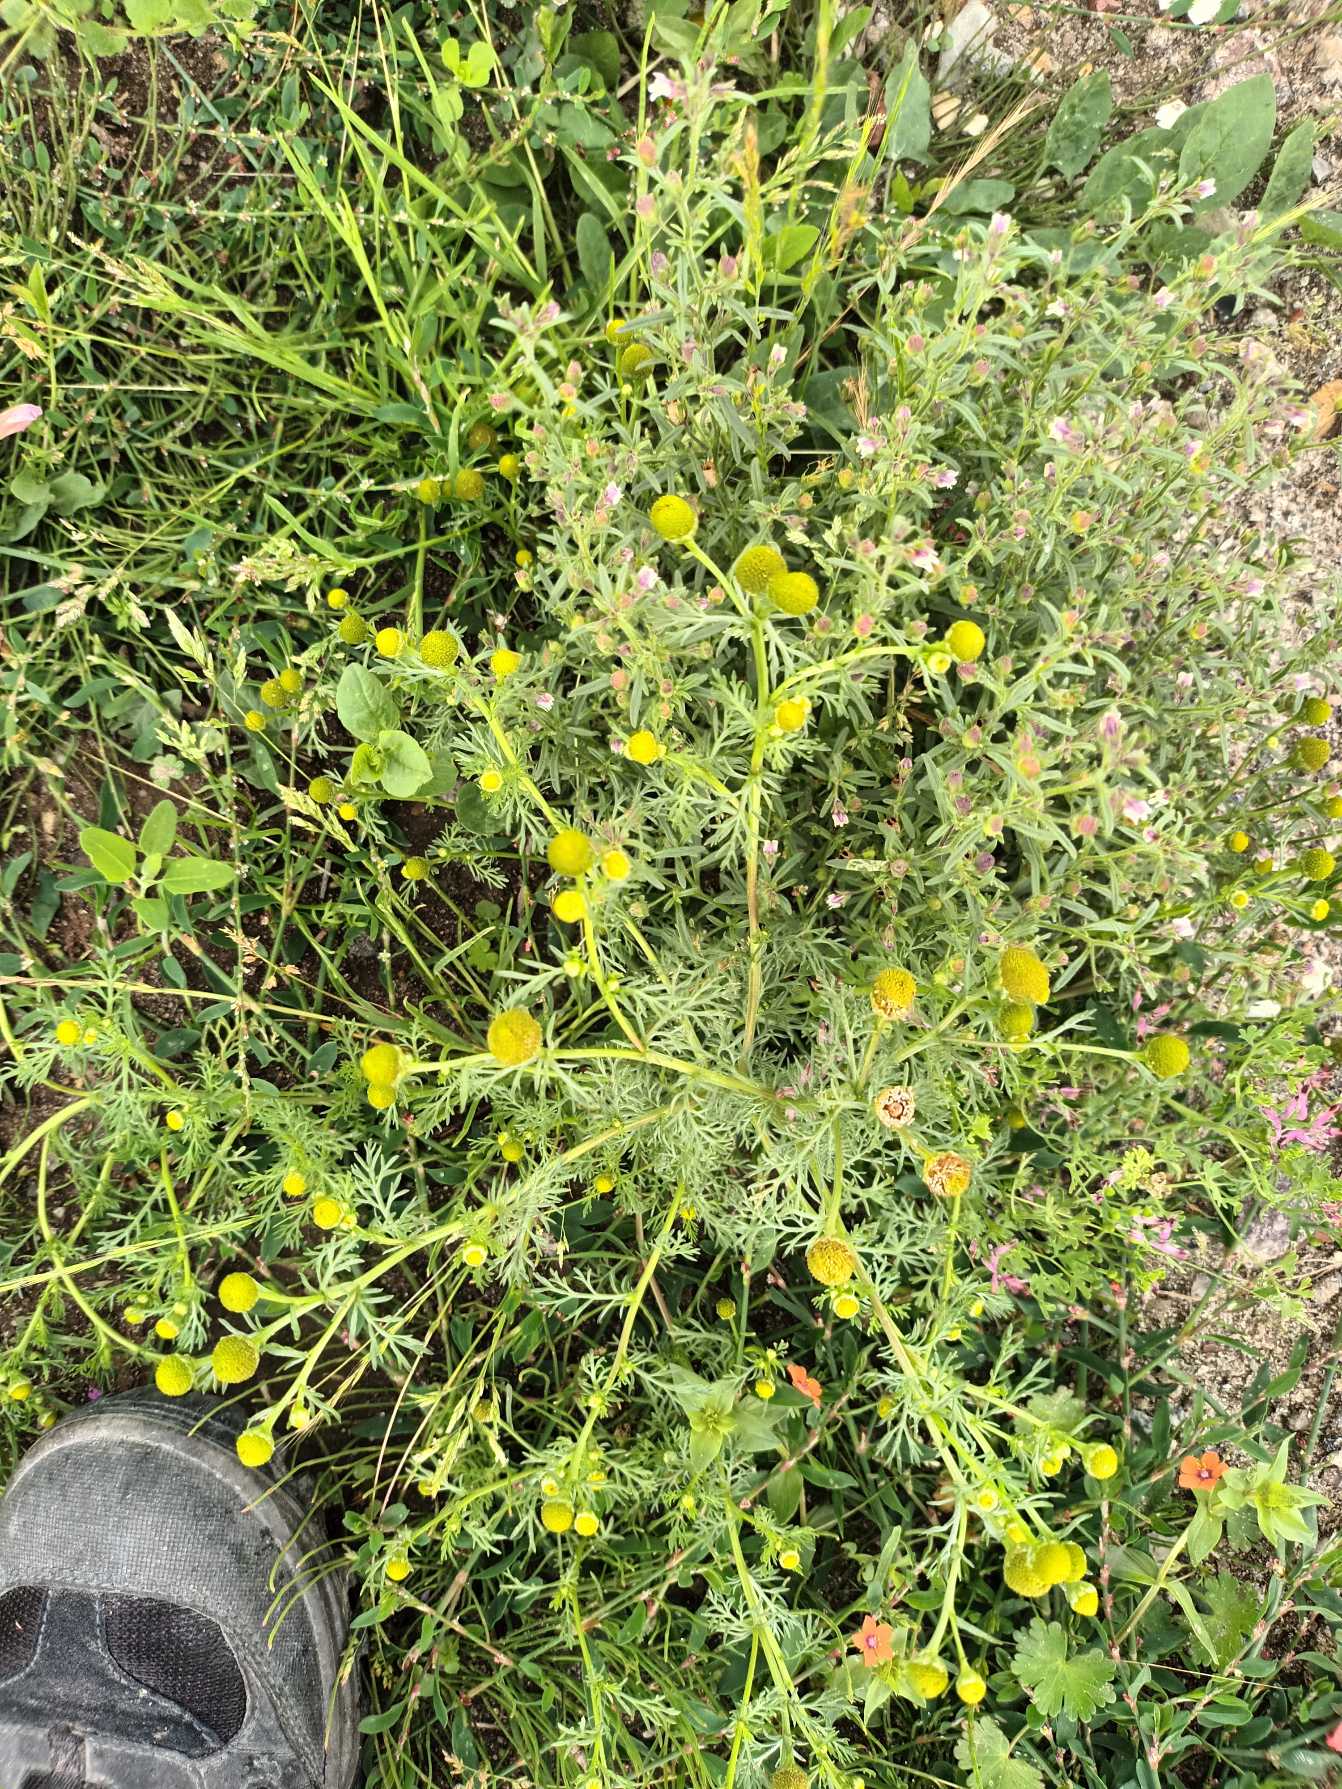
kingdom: Plantae
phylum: Tracheophyta
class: Magnoliopsida
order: Asterales
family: Asteraceae
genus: Matricaria
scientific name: Matricaria discoidea
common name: Skive-kamille
